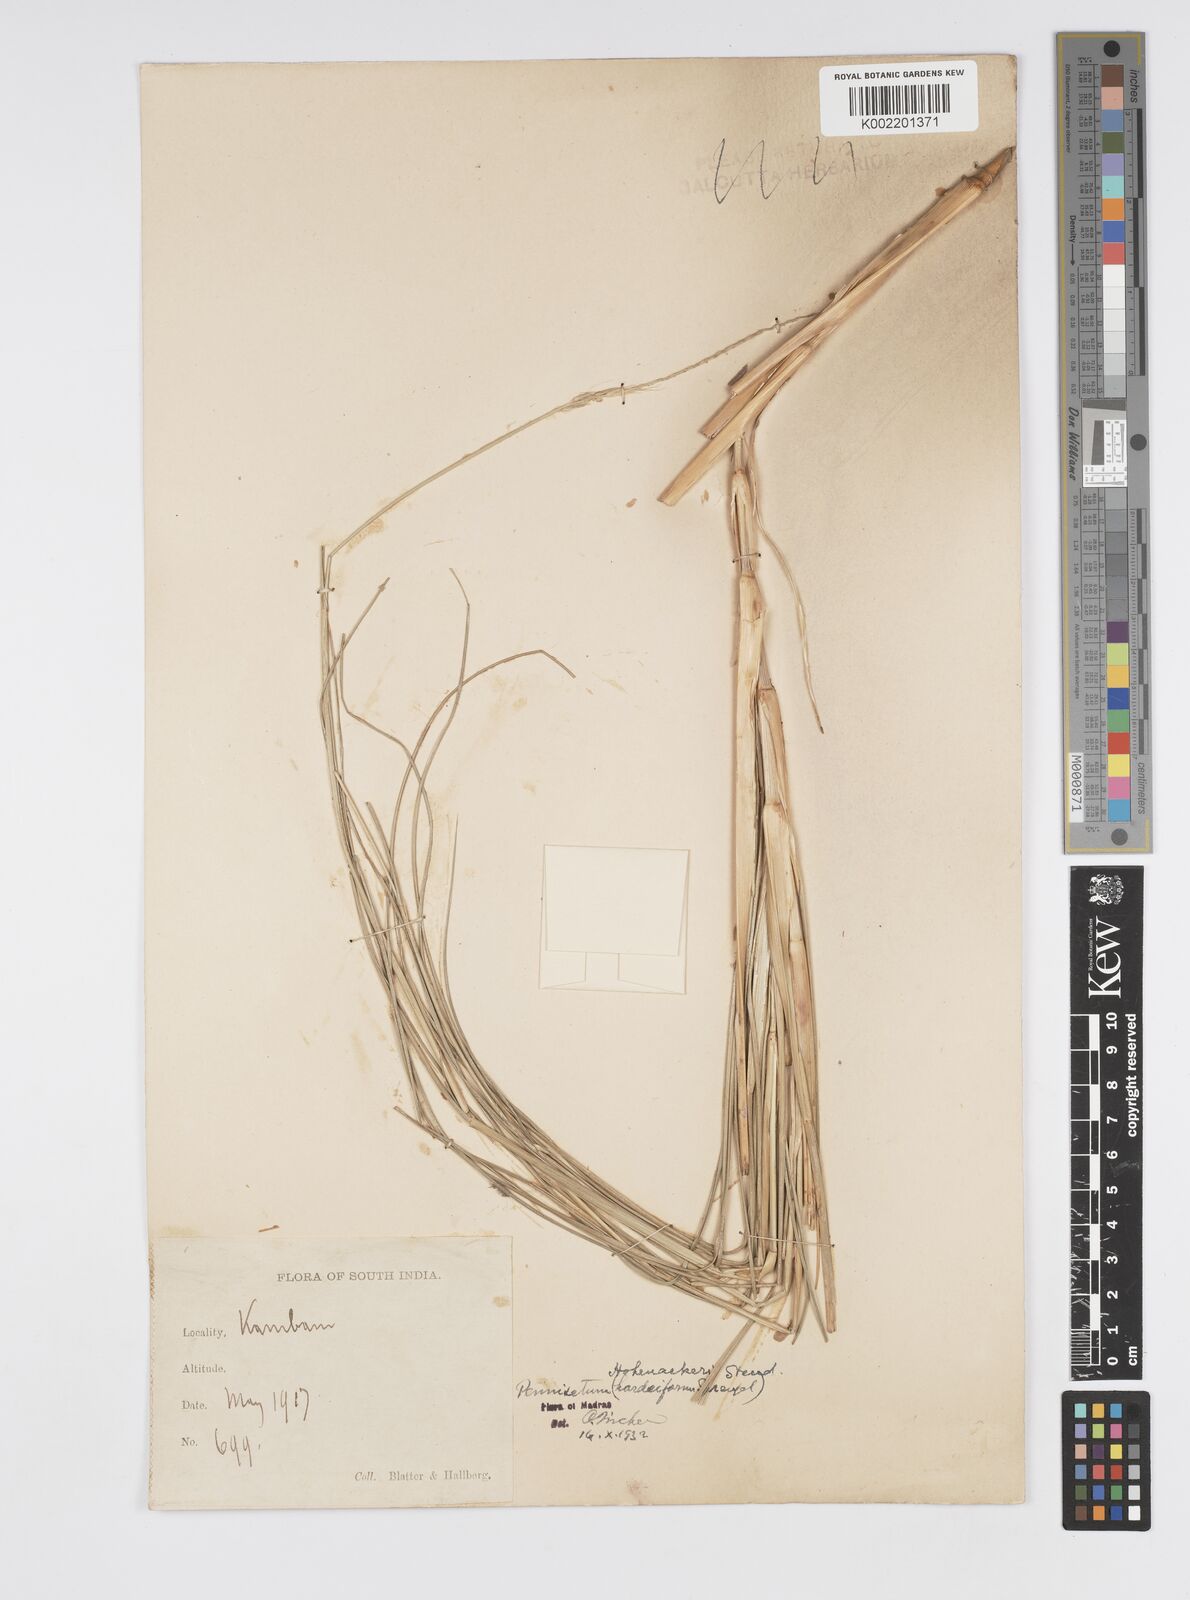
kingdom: Plantae
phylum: Tracheophyta
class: Liliopsida
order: Poales
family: Poaceae
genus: Cenchrus
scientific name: Cenchrus hohenackeri
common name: Moya grass
